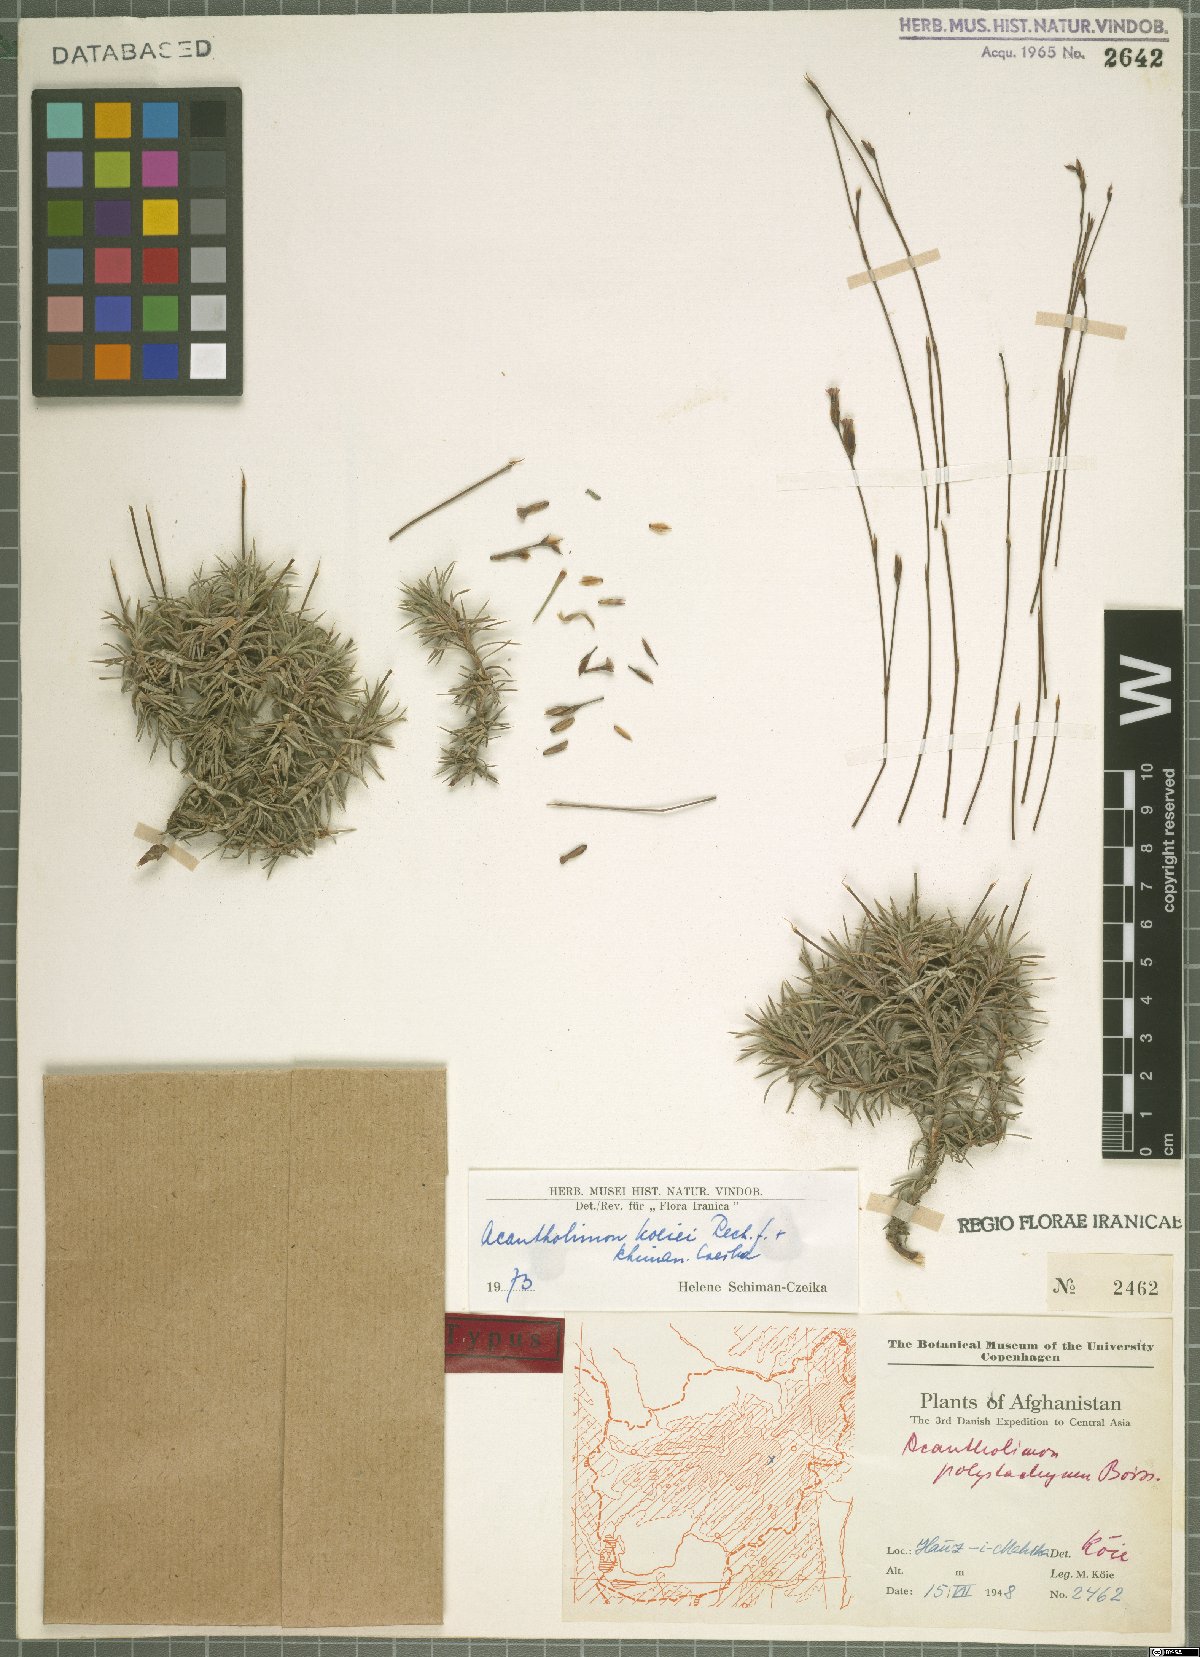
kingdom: Plantae
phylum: Tracheophyta
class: Magnoliopsida
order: Caryophyllales
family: Plumbaginaceae
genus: Acantholimon
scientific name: Acantholimon koeiei
